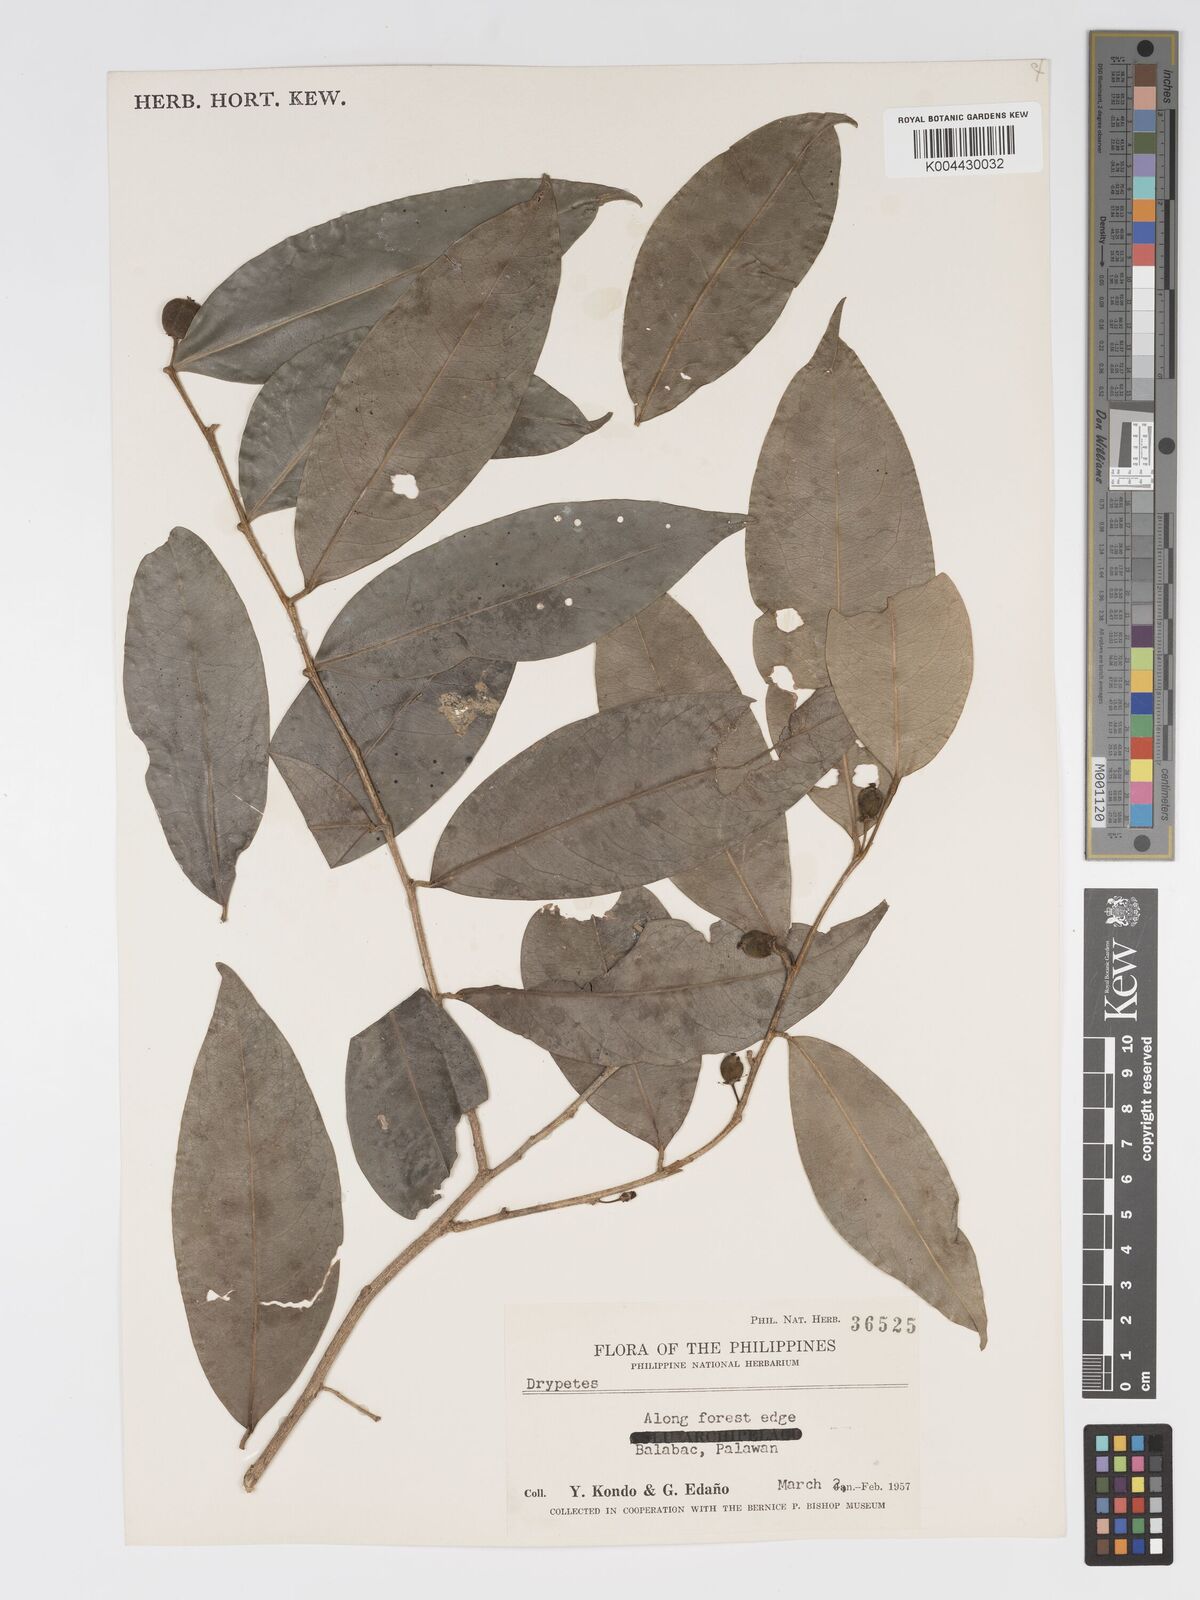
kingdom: Plantae
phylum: Tracheophyta
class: Magnoliopsida
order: Malpighiales
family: Putranjivaceae
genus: Drypetes
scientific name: Drypetes rhakodiskos
